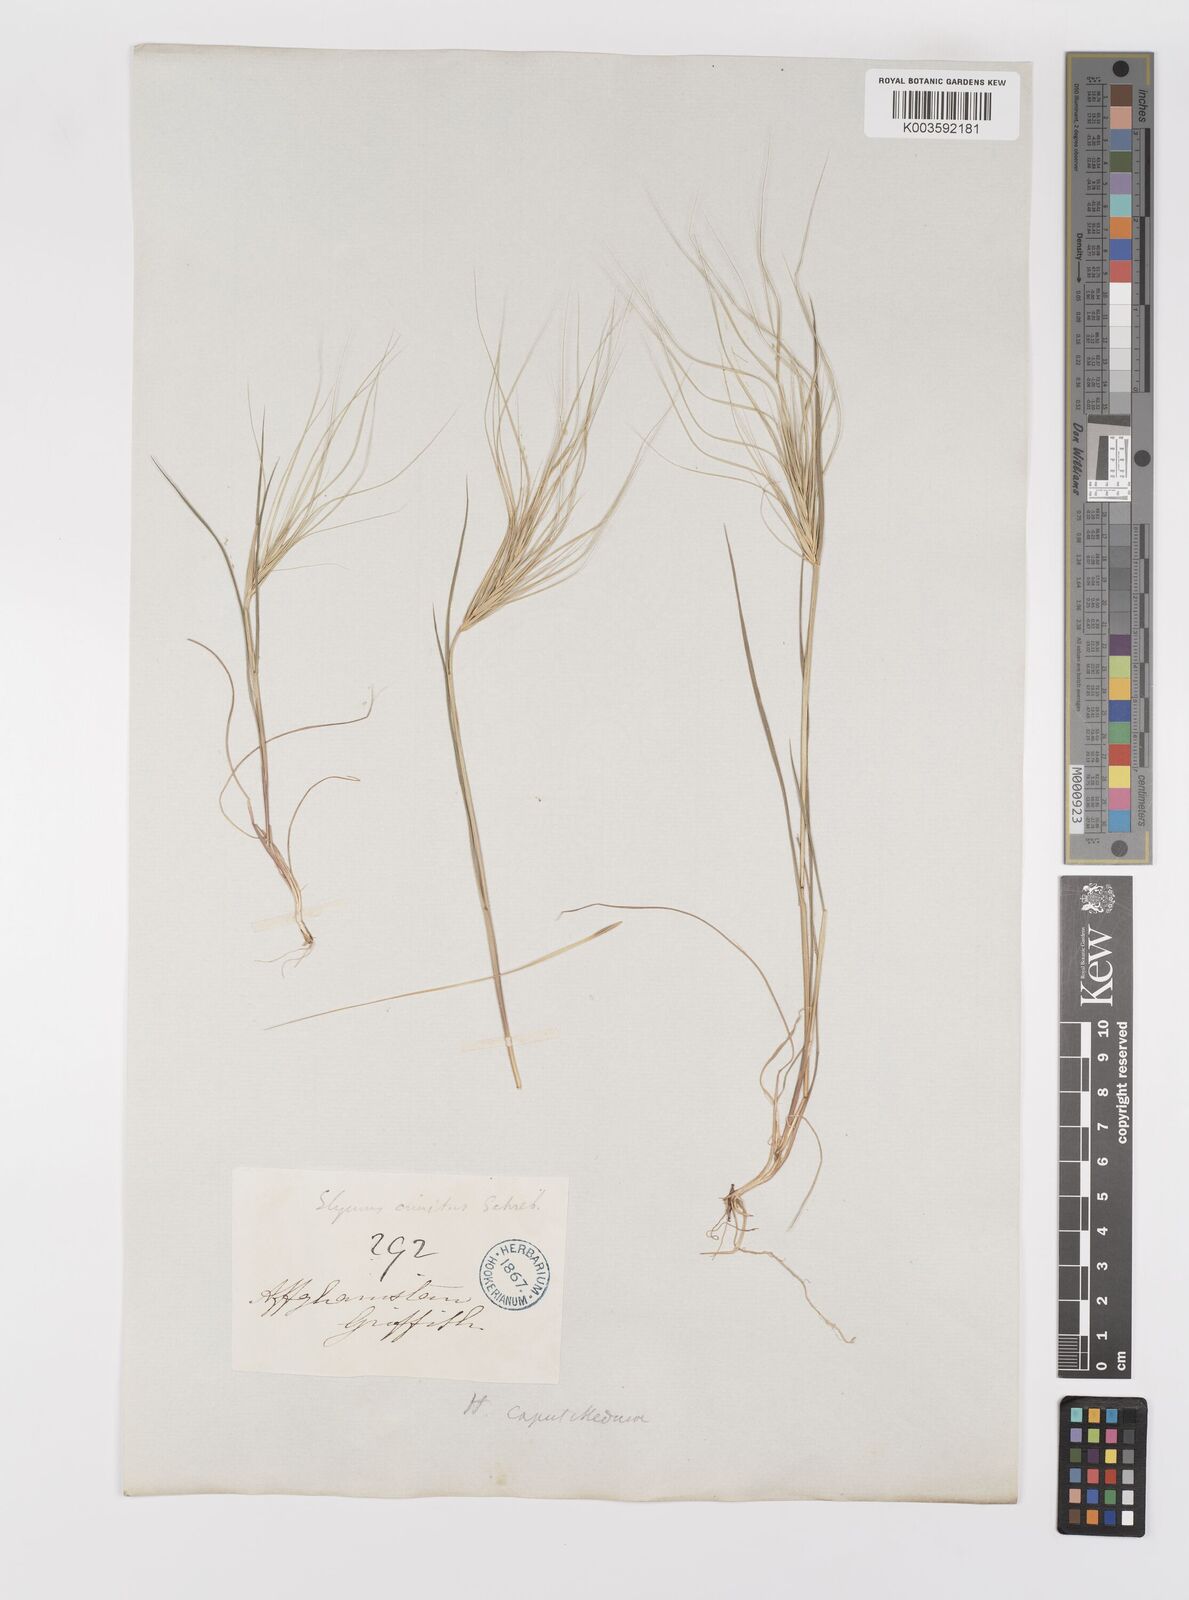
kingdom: Plantae
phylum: Tracheophyta
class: Liliopsida
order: Poales
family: Poaceae
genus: Taeniatherum
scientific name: Taeniatherum caput-medusae
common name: Medusahead
